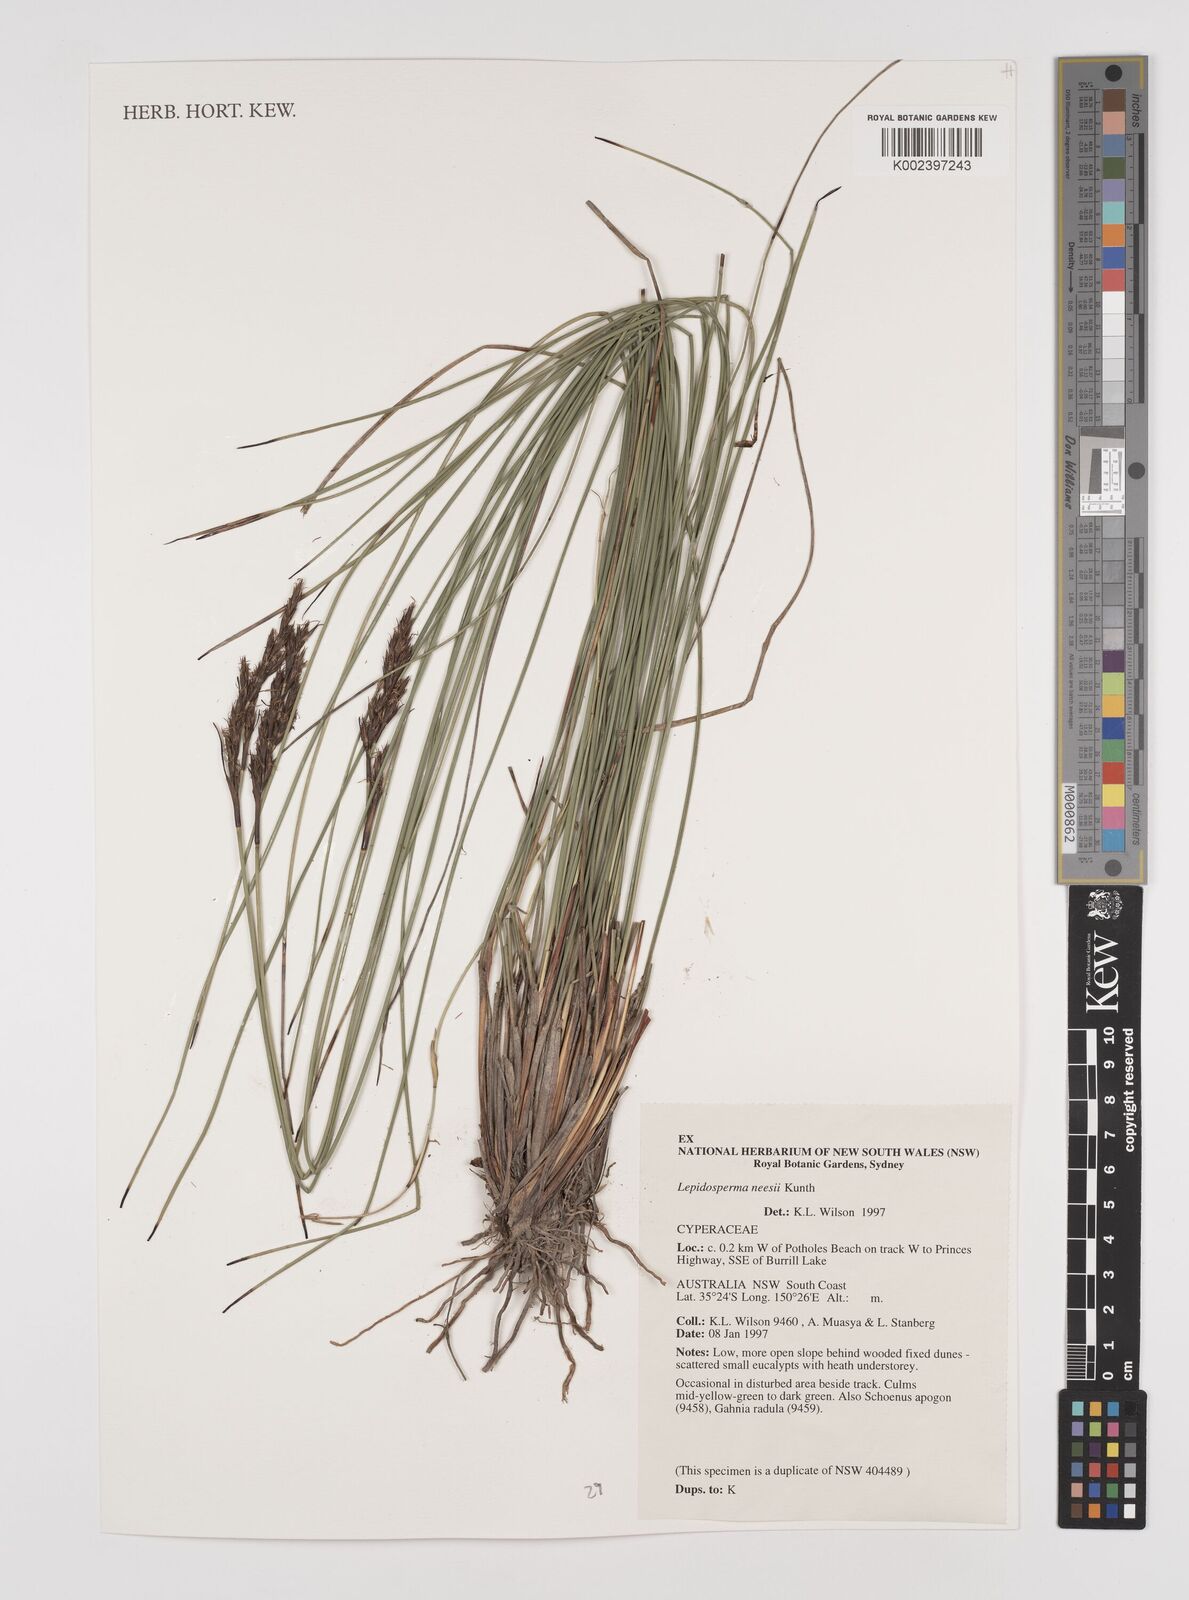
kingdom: Plantae
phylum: Tracheophyta
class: Liliopsida
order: Poales
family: Cyperaceae
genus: Lepidosperma
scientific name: Lepidosperma neesii
